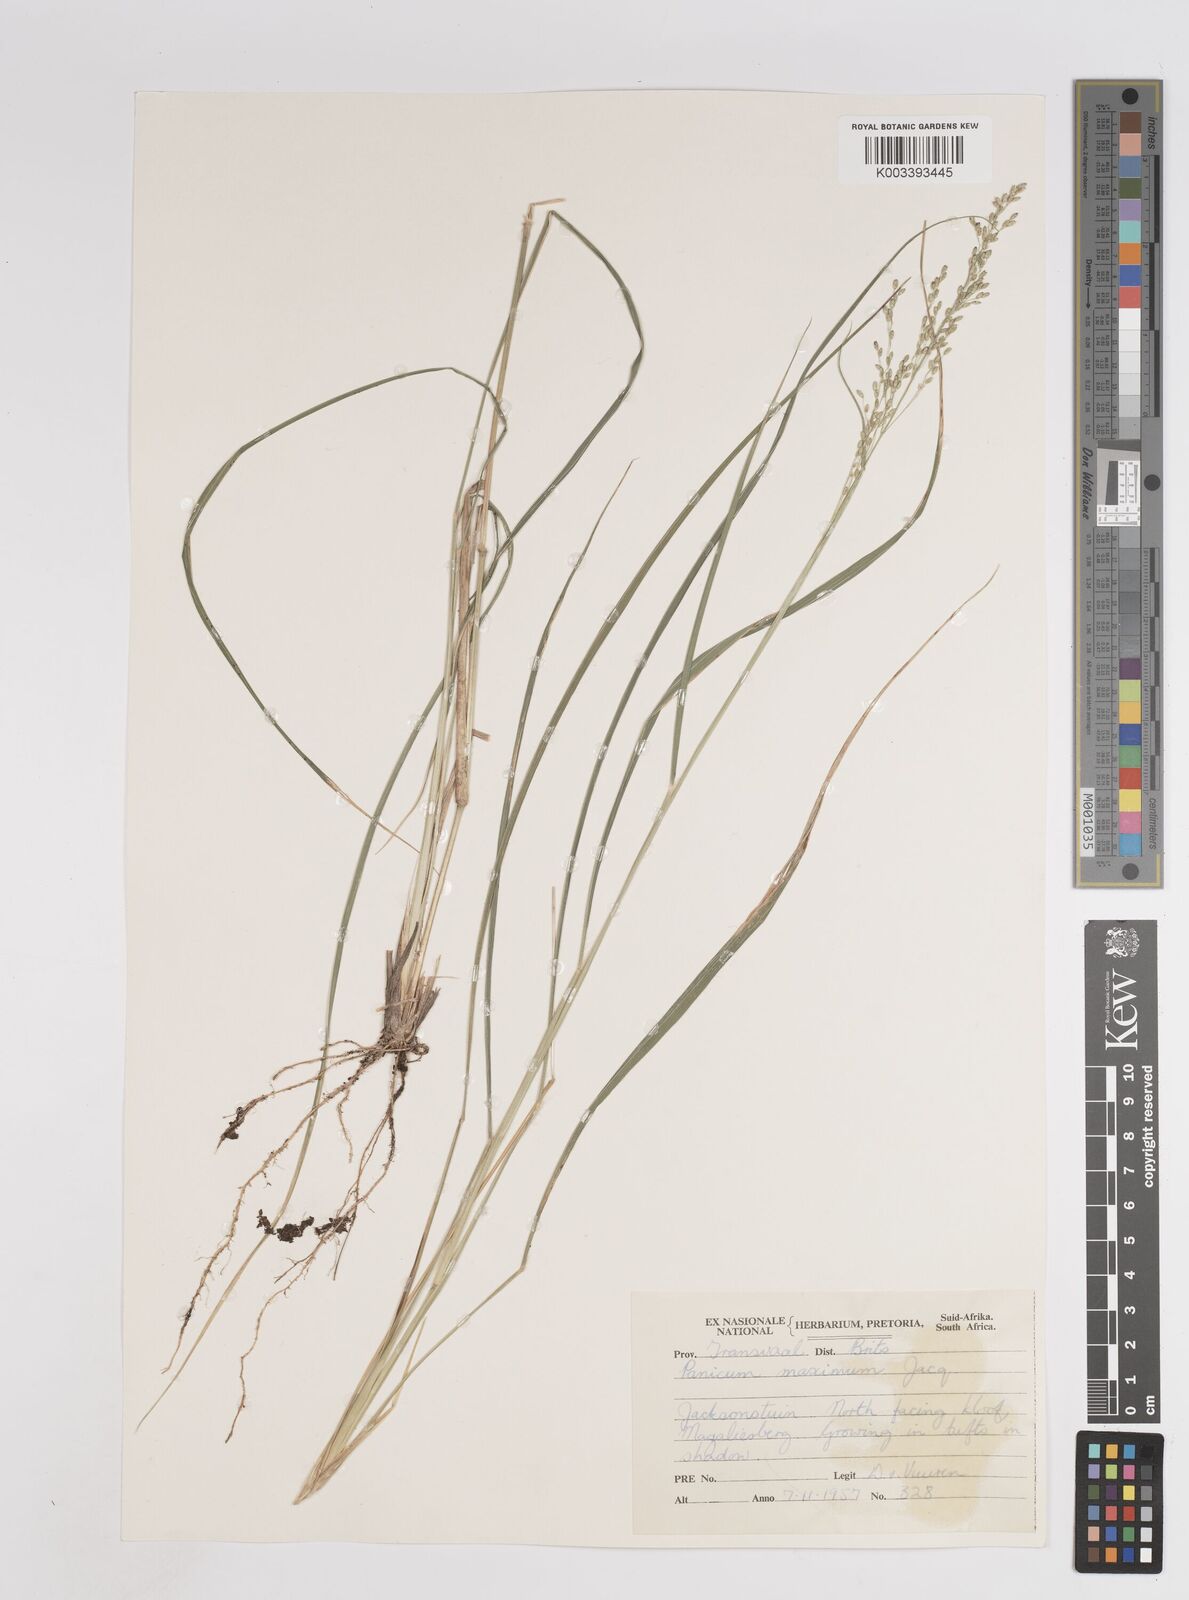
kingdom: Plantae
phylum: Tracheophyta
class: Liliopsida
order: Poales
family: Poaceae
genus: Megathyrsus
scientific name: Megathyrsus maximus
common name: Guineagrass
